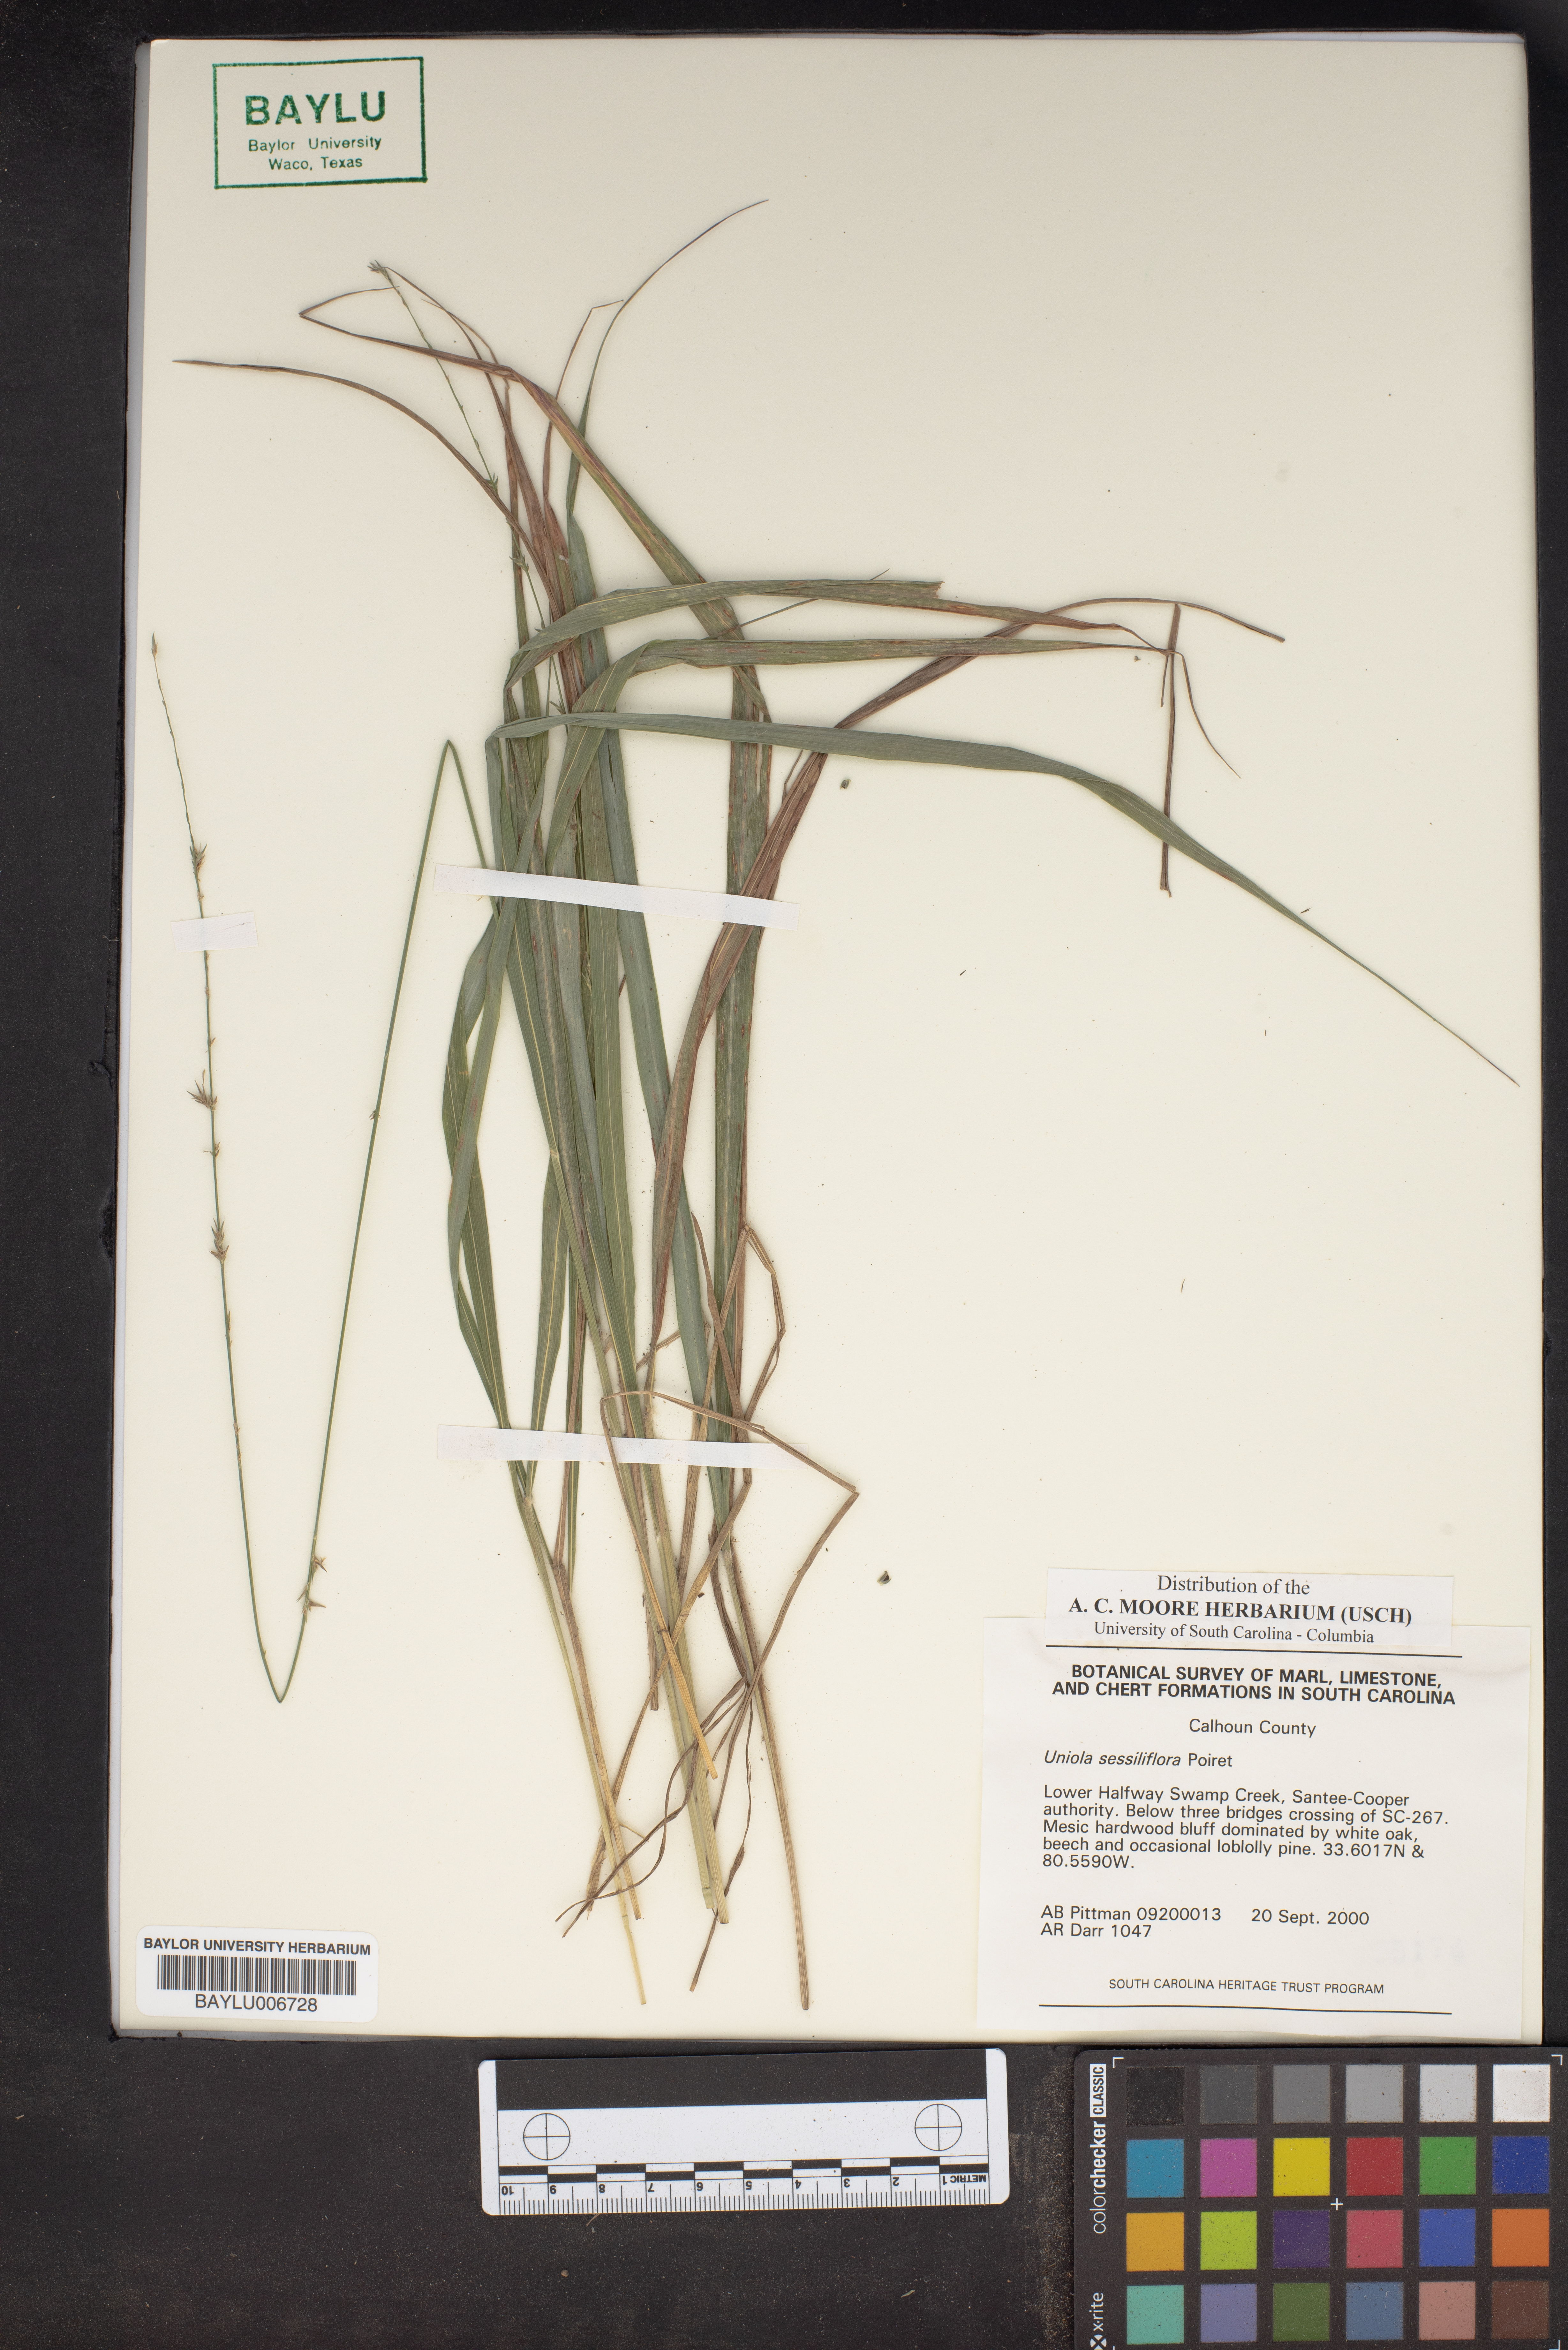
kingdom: Plantae
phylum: Tracheophyta
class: Liliopsida
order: Poales
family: Poaceae
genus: Chasmanthium
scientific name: Chasmanthium laxum
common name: Slender chasmanthium
